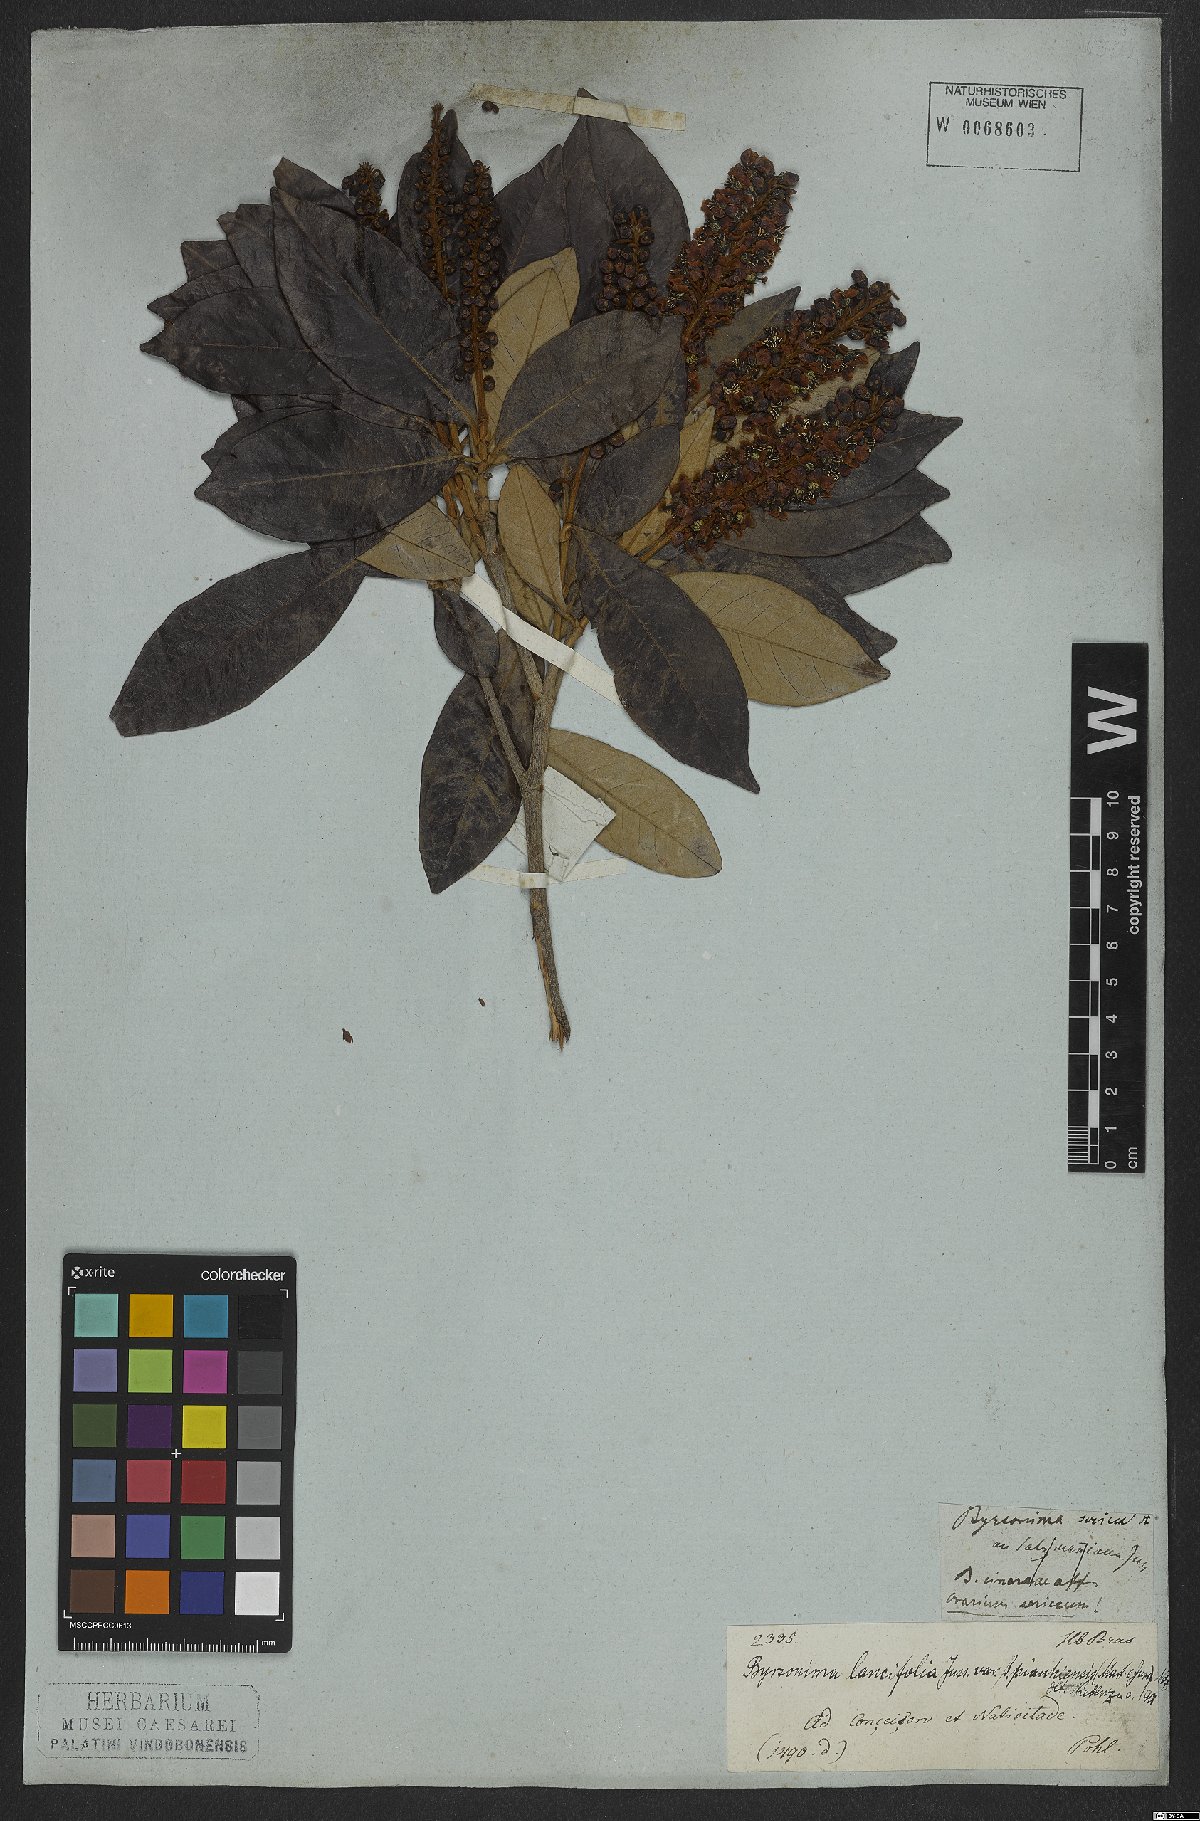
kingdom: Plantae
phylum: Tracheophyta
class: Magnoliopsida
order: Malpighiales
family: Malpighiaceae
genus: Byrsonima
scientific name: Byrsonima lancifolia
